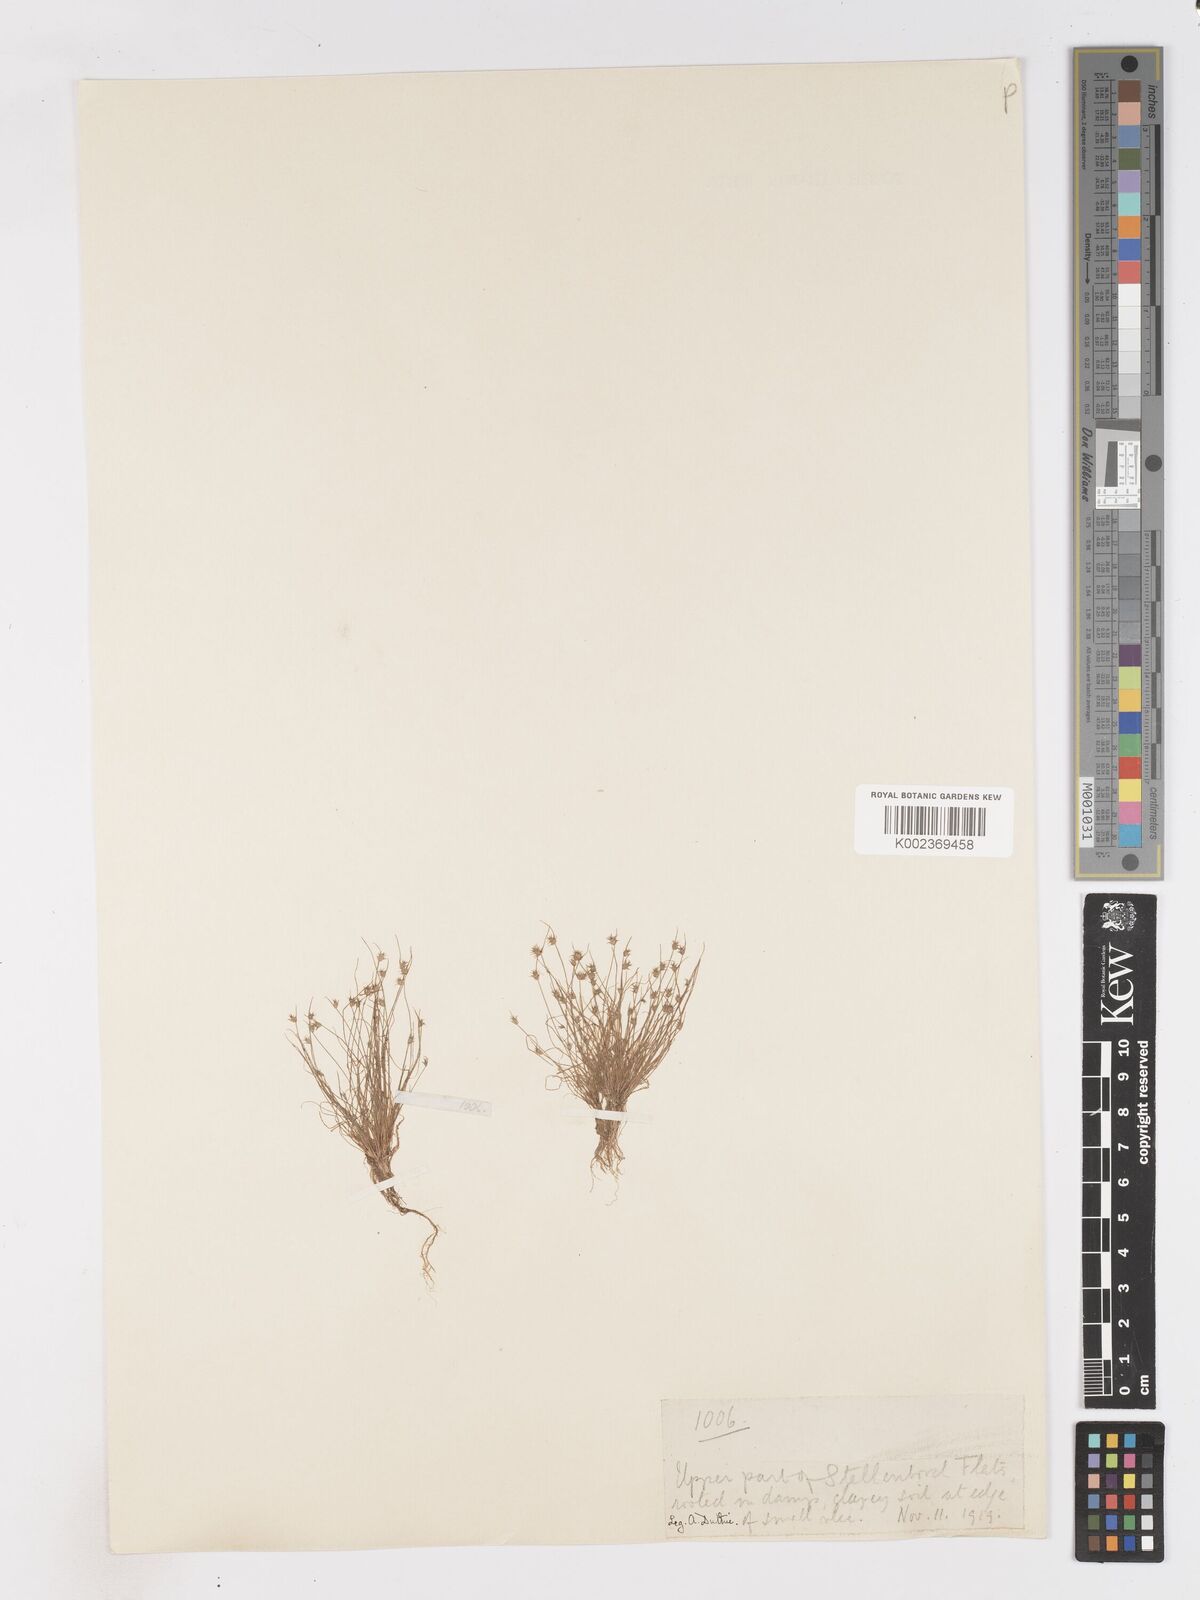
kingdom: Plantae
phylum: Tracheophyta
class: Liliopsida
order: Poales
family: Cyperaceae
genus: Isolepis
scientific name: Isolepis hystrix
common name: Bottlebrush bulrush
